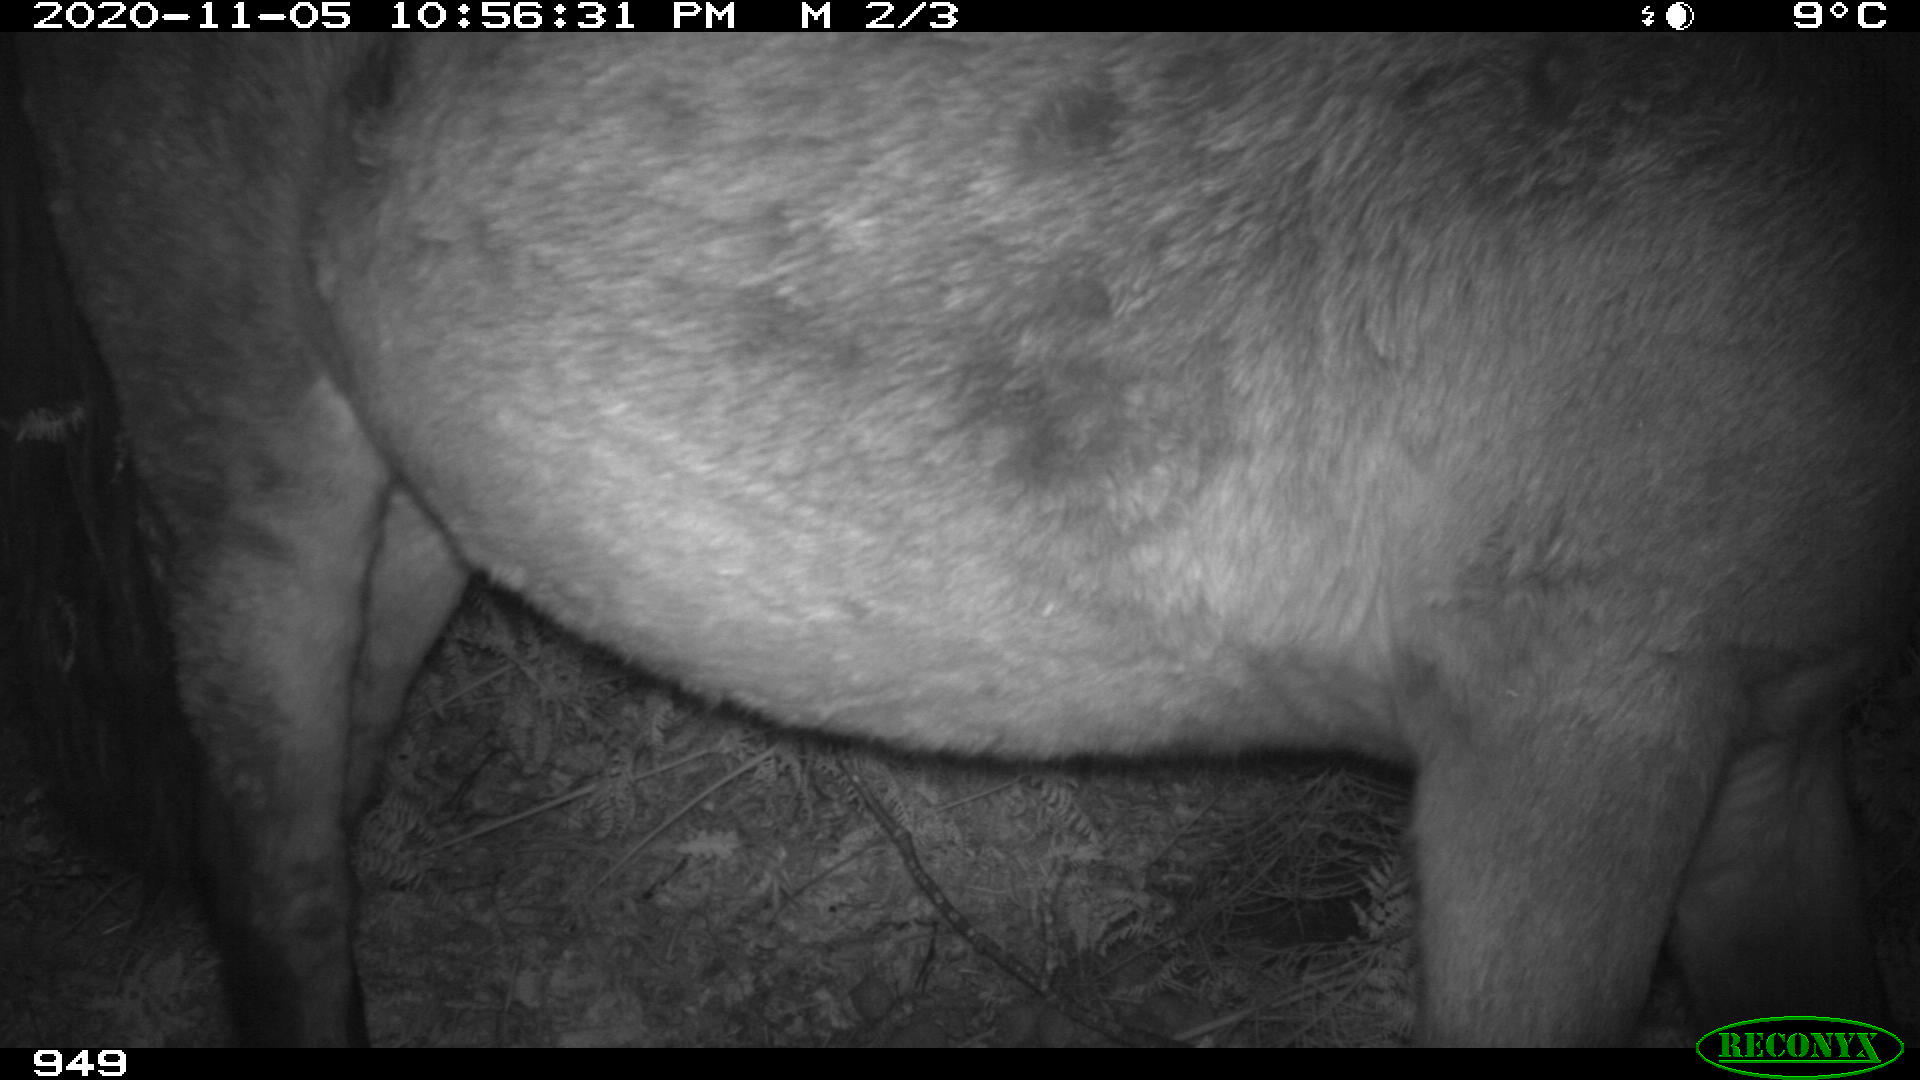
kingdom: Animalia
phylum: Chordata
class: Mammalia
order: Perissodactyla
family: Equidae
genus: Equus
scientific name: Equus caballus
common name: Horse
